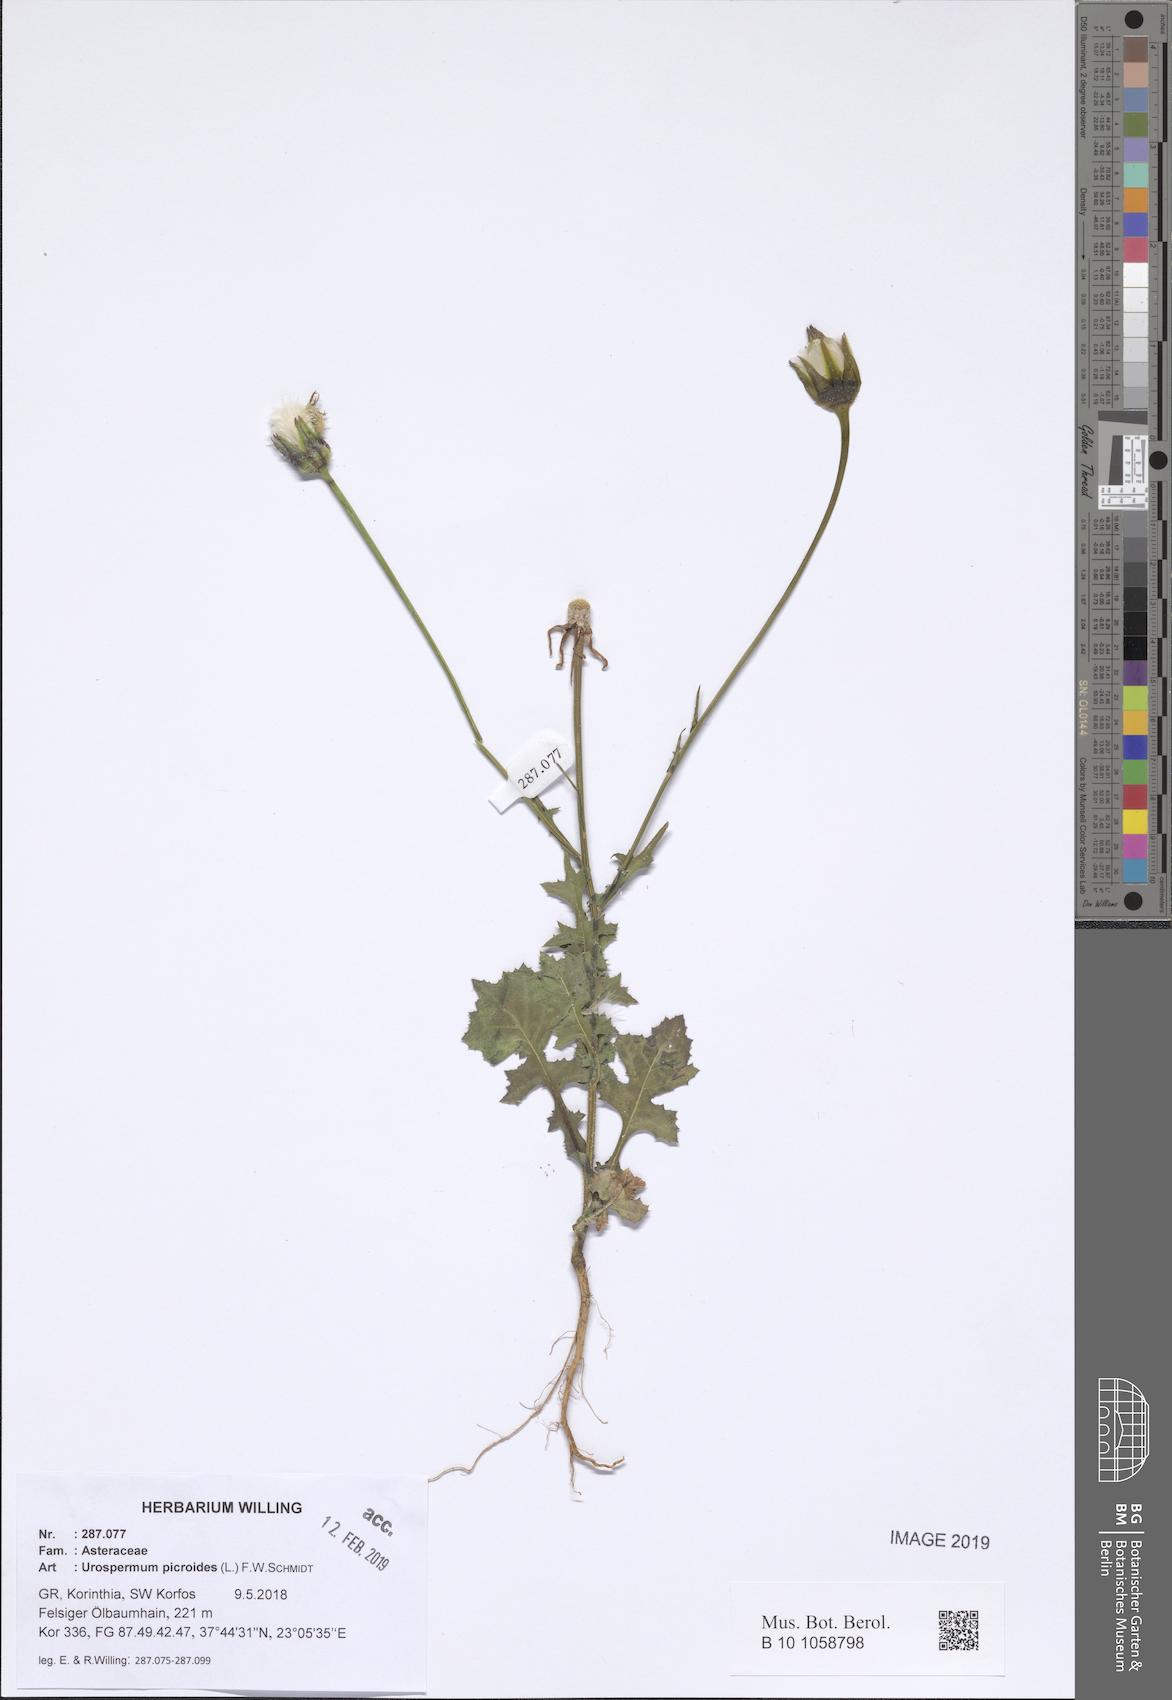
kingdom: Plantae
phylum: Tracheophyta
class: Magnoliopsida
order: Asterales
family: Asteraceae
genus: Urospermum
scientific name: Urospermum picroides
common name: False hawkbit
